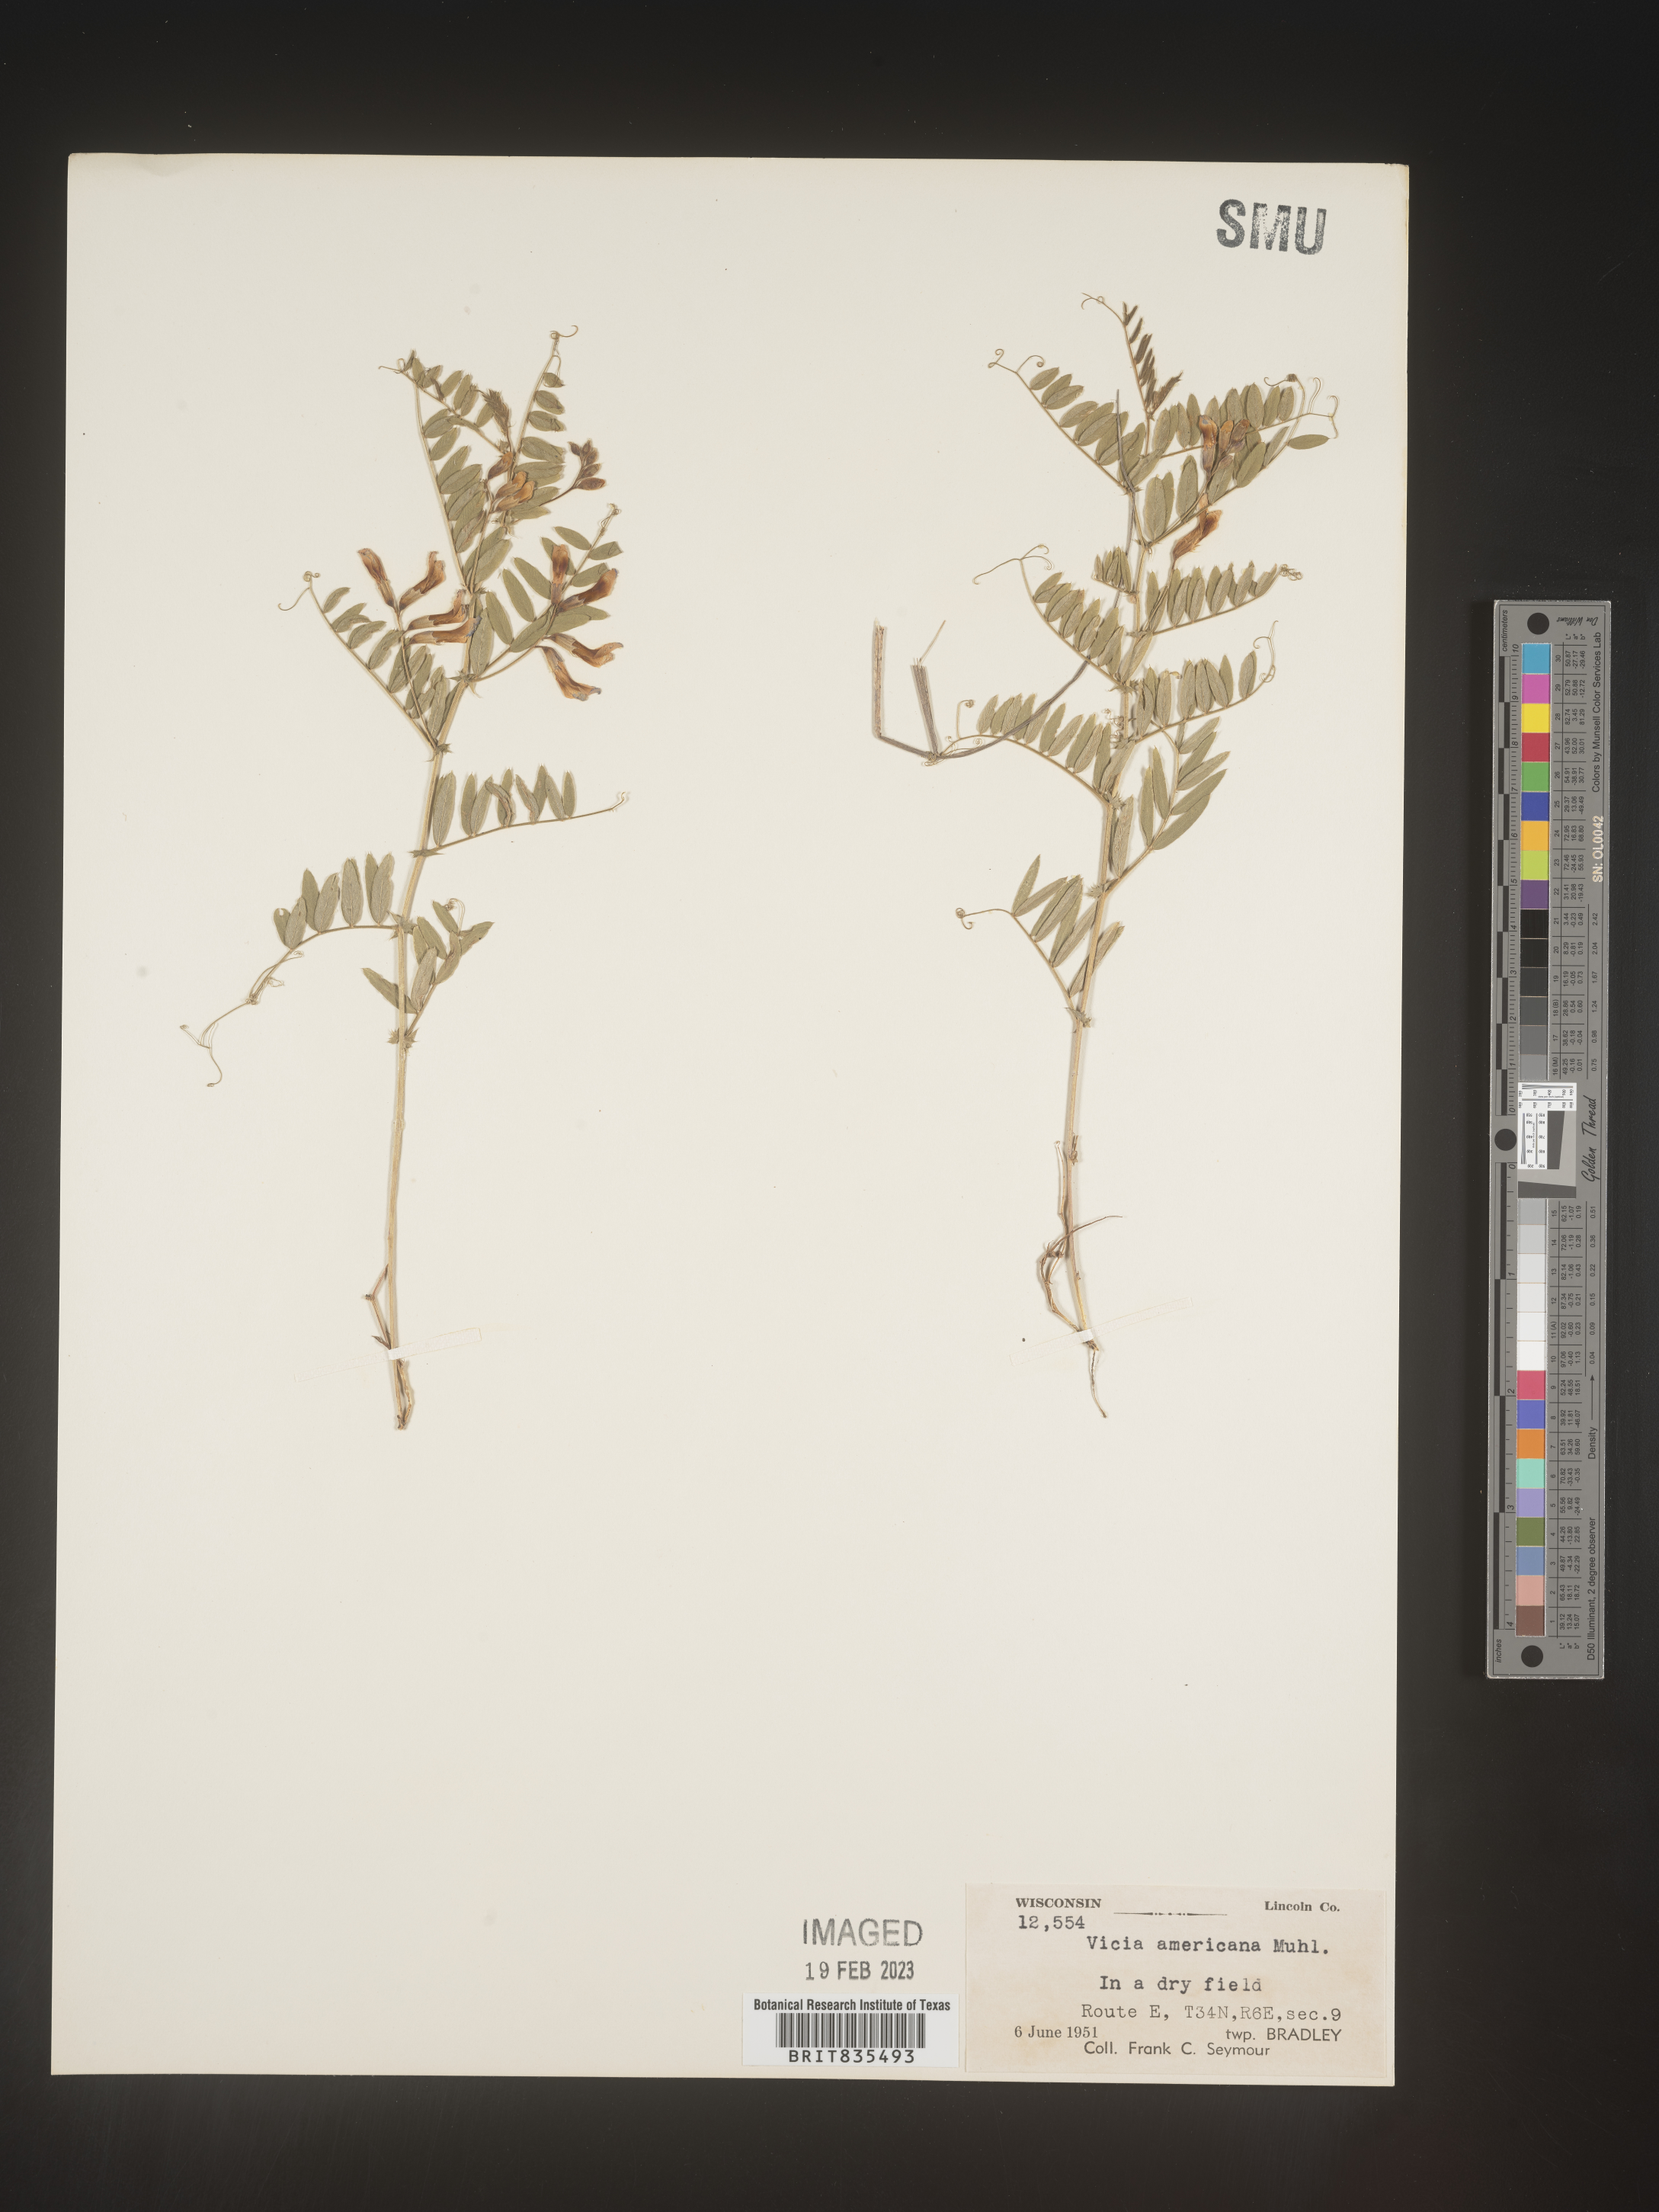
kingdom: Plantae
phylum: Tracheophyta
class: Magnoliopsida
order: Fabales
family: Fabaceae
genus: Vicia
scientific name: Vicia americana
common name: American vetch
